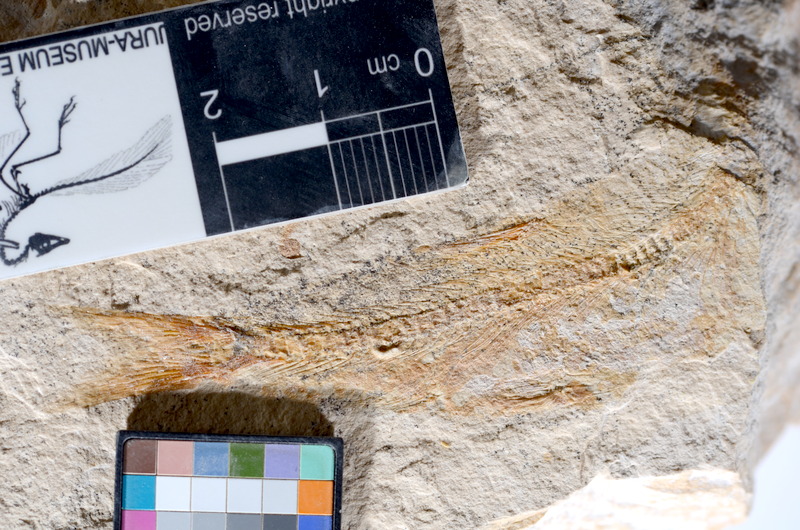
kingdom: Animalia
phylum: Chordata
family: Ascalaboidae
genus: Tharsis
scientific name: Tharsis dubius
